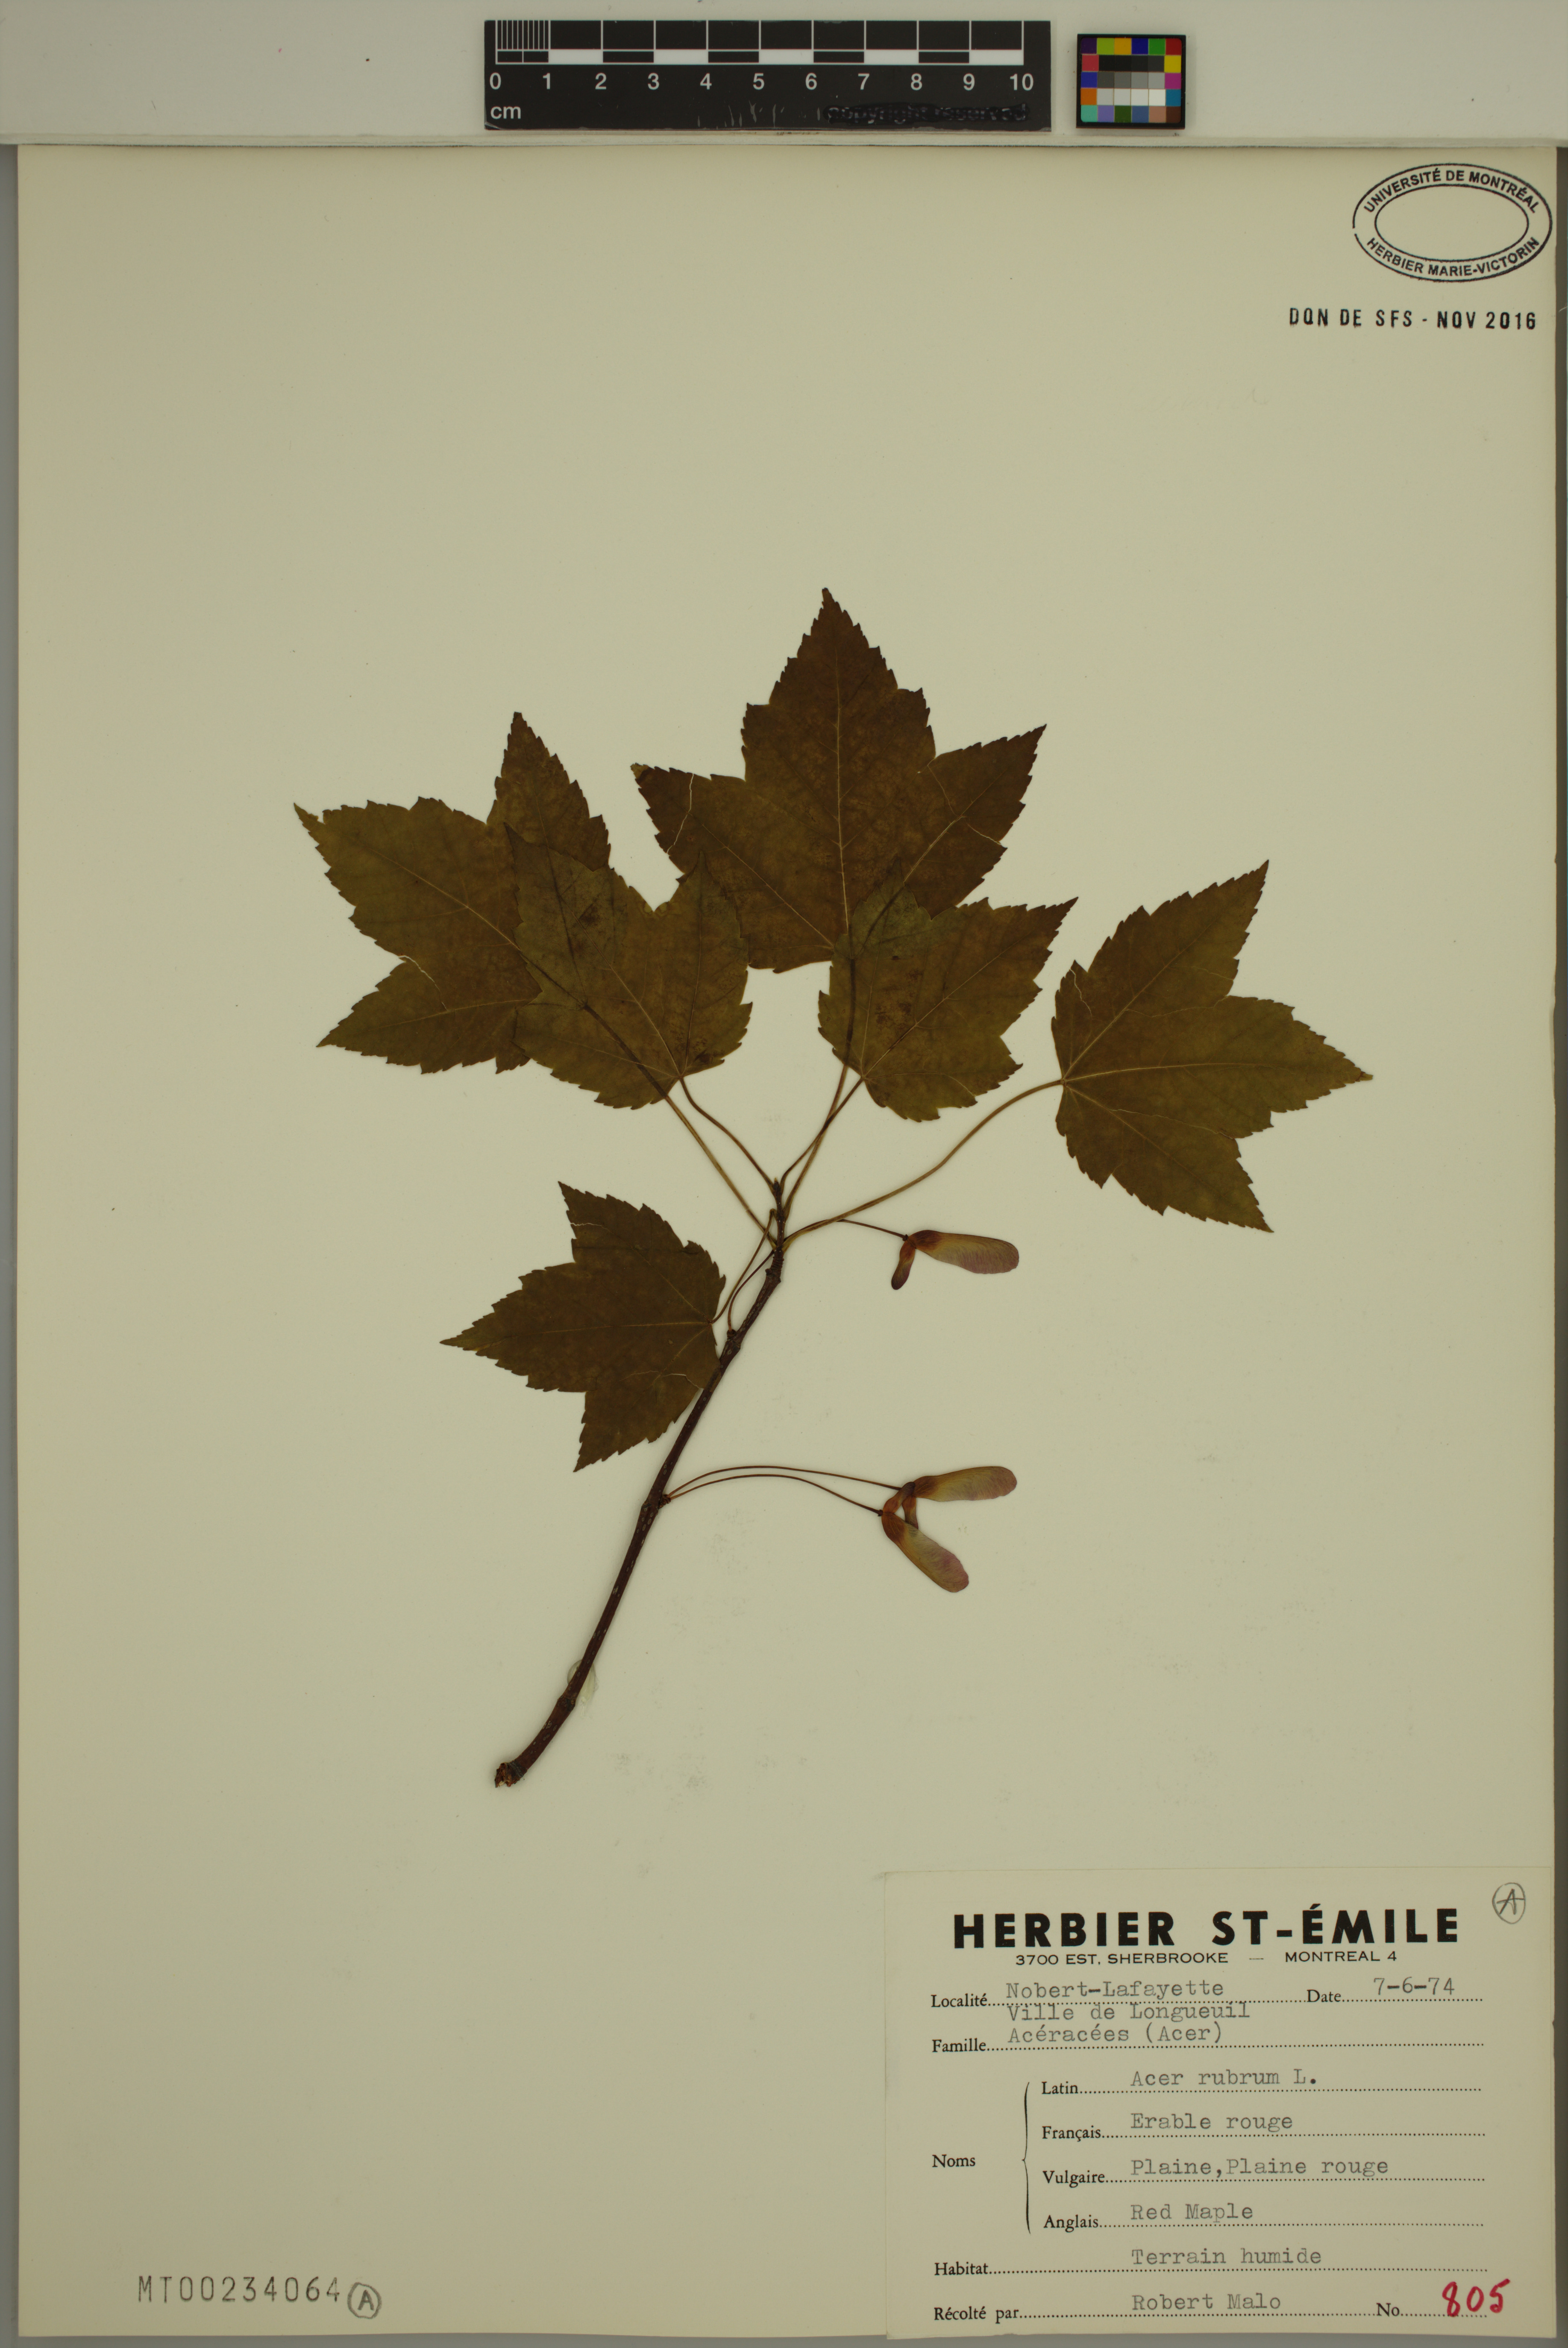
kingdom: Plantae
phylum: Tracheophyta
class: Magnoliopsida
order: Sapindales
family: Sapindaceae
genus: Acer
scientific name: Acer rubrum
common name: Red maple
